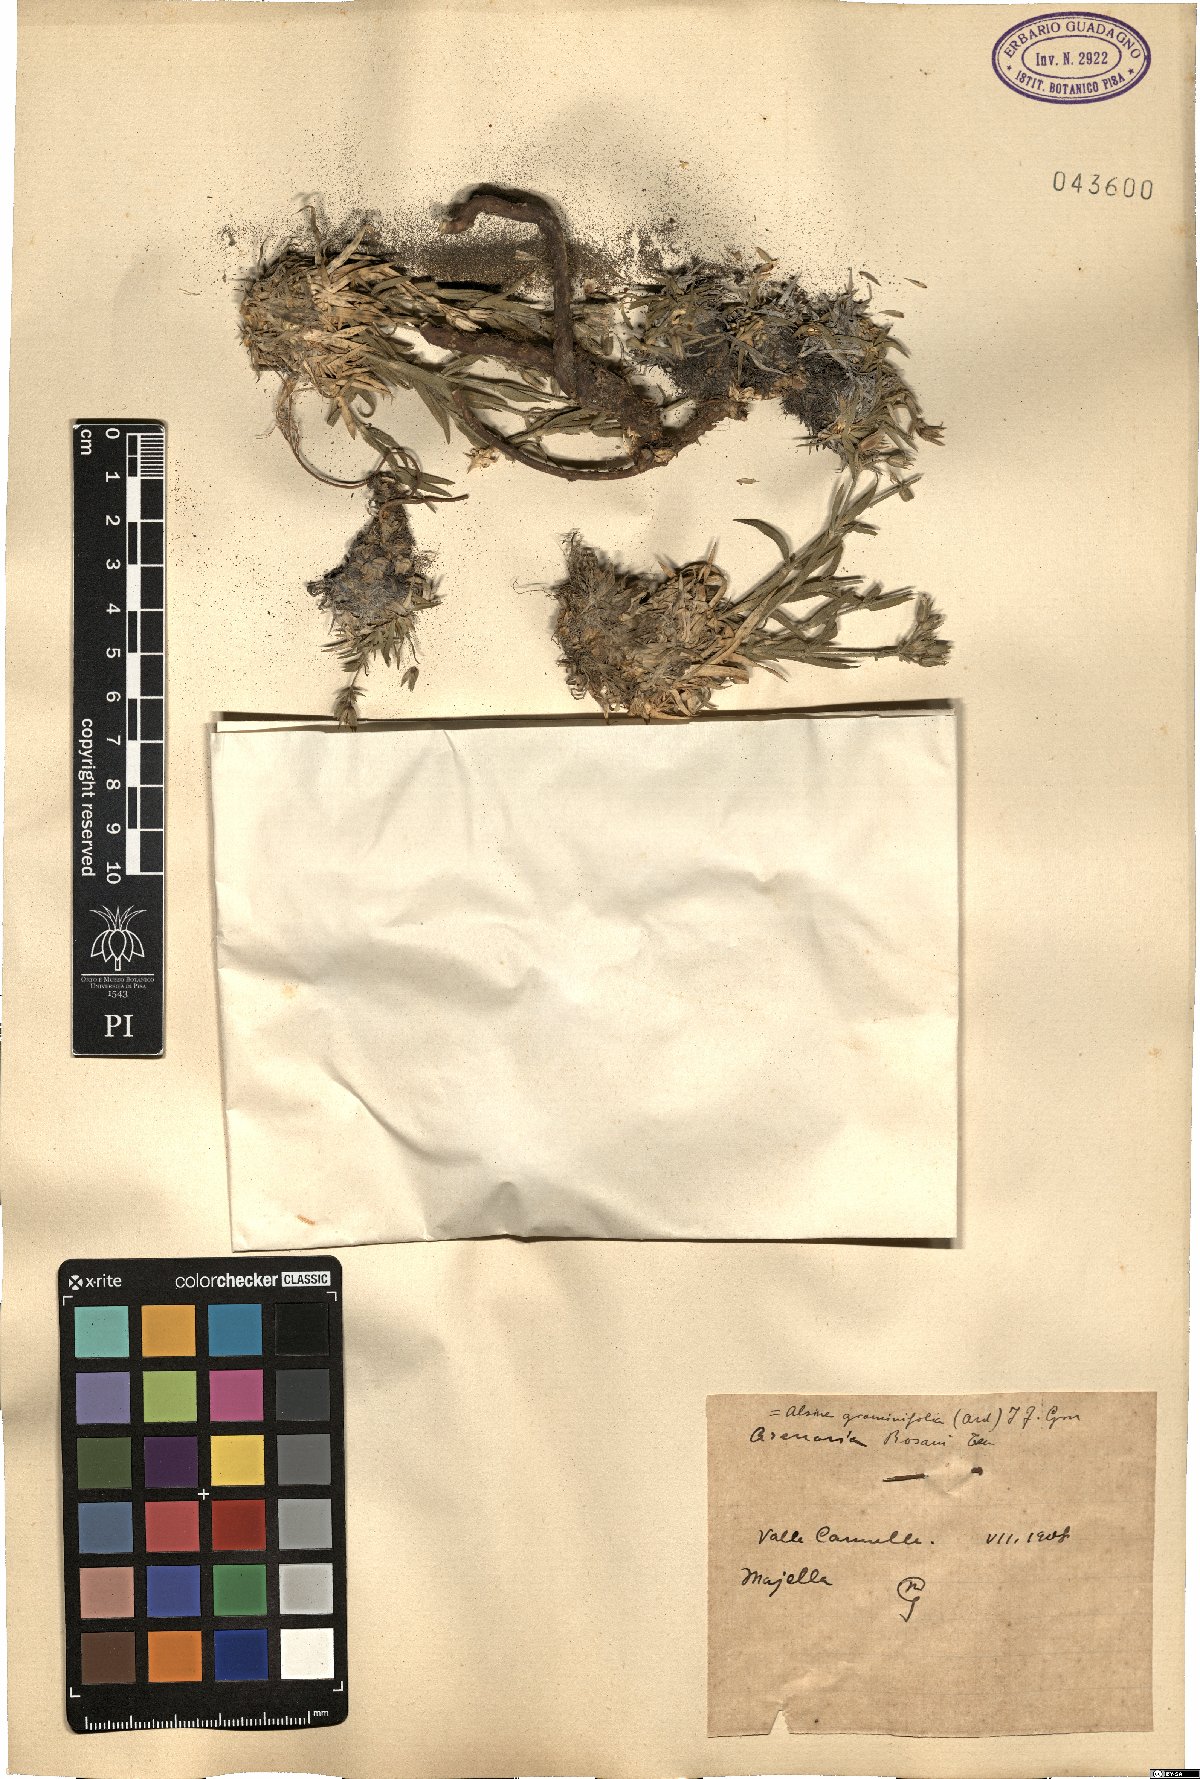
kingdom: Plantae
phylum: Tracheophyta
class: Magnoliopsida
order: Caryophyllales
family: Caryophyllaceae
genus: Mcneillia
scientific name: Mcneillia graminifolia
